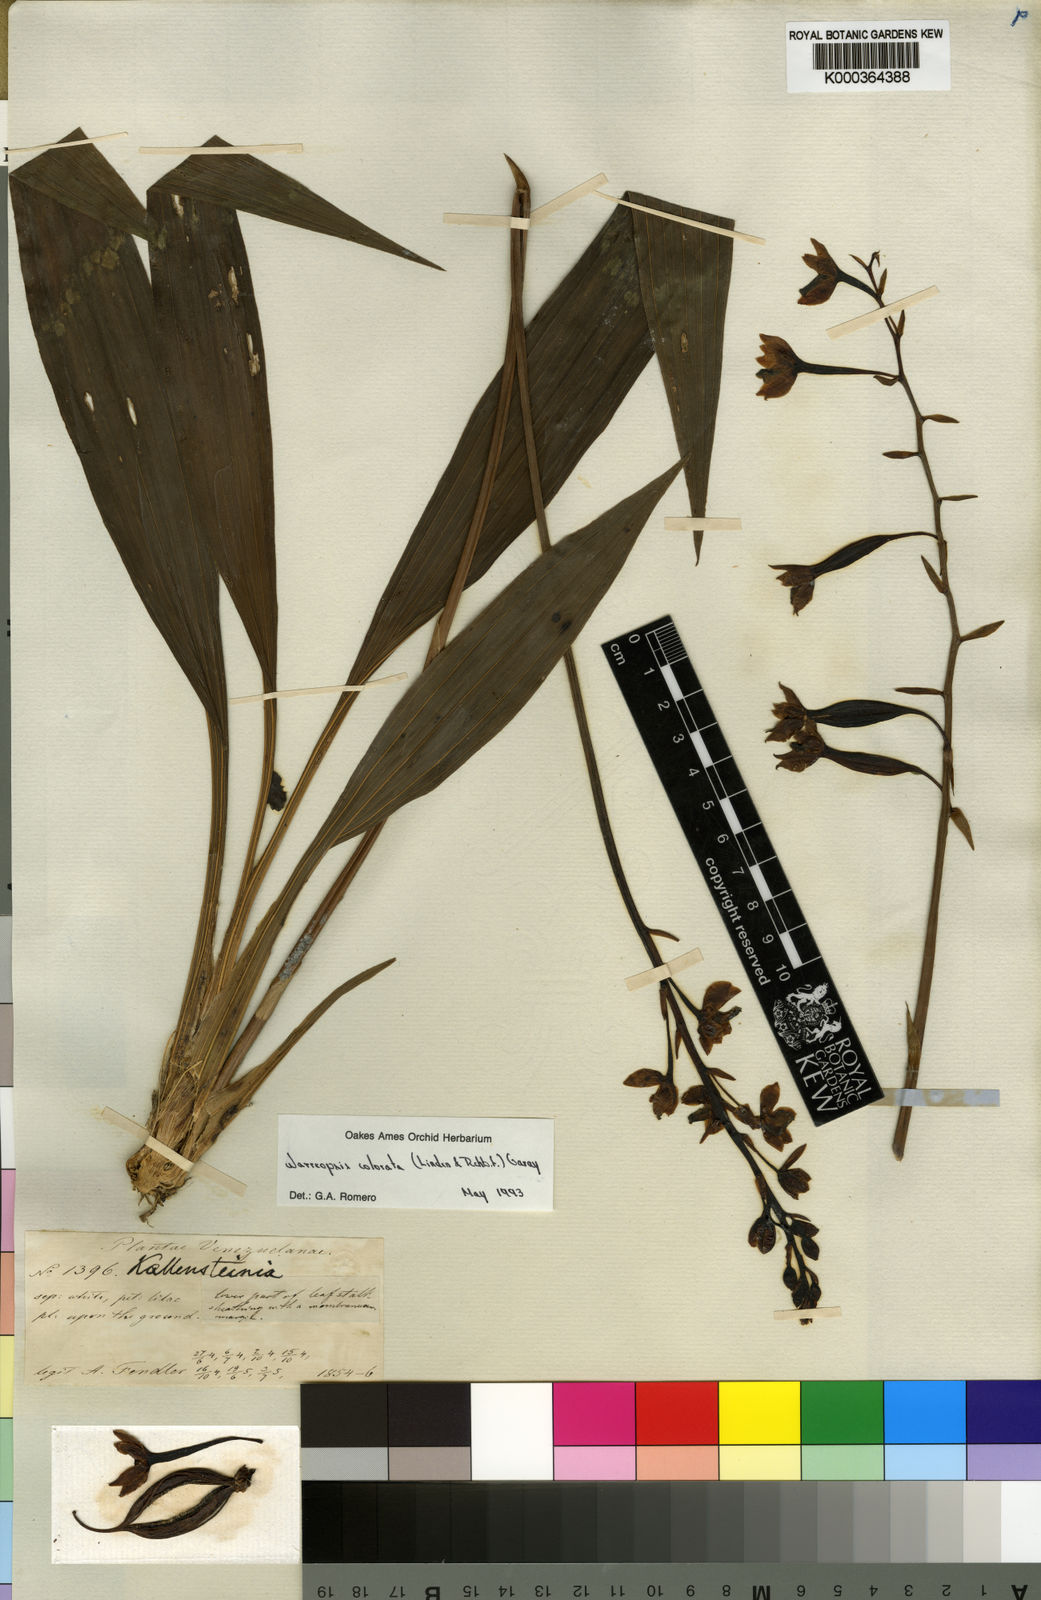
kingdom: Plantae
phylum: Tracheophyta
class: Liliopsida
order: Asparagales
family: Orchidaceae
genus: Warreella
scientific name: Warreella cyanea
